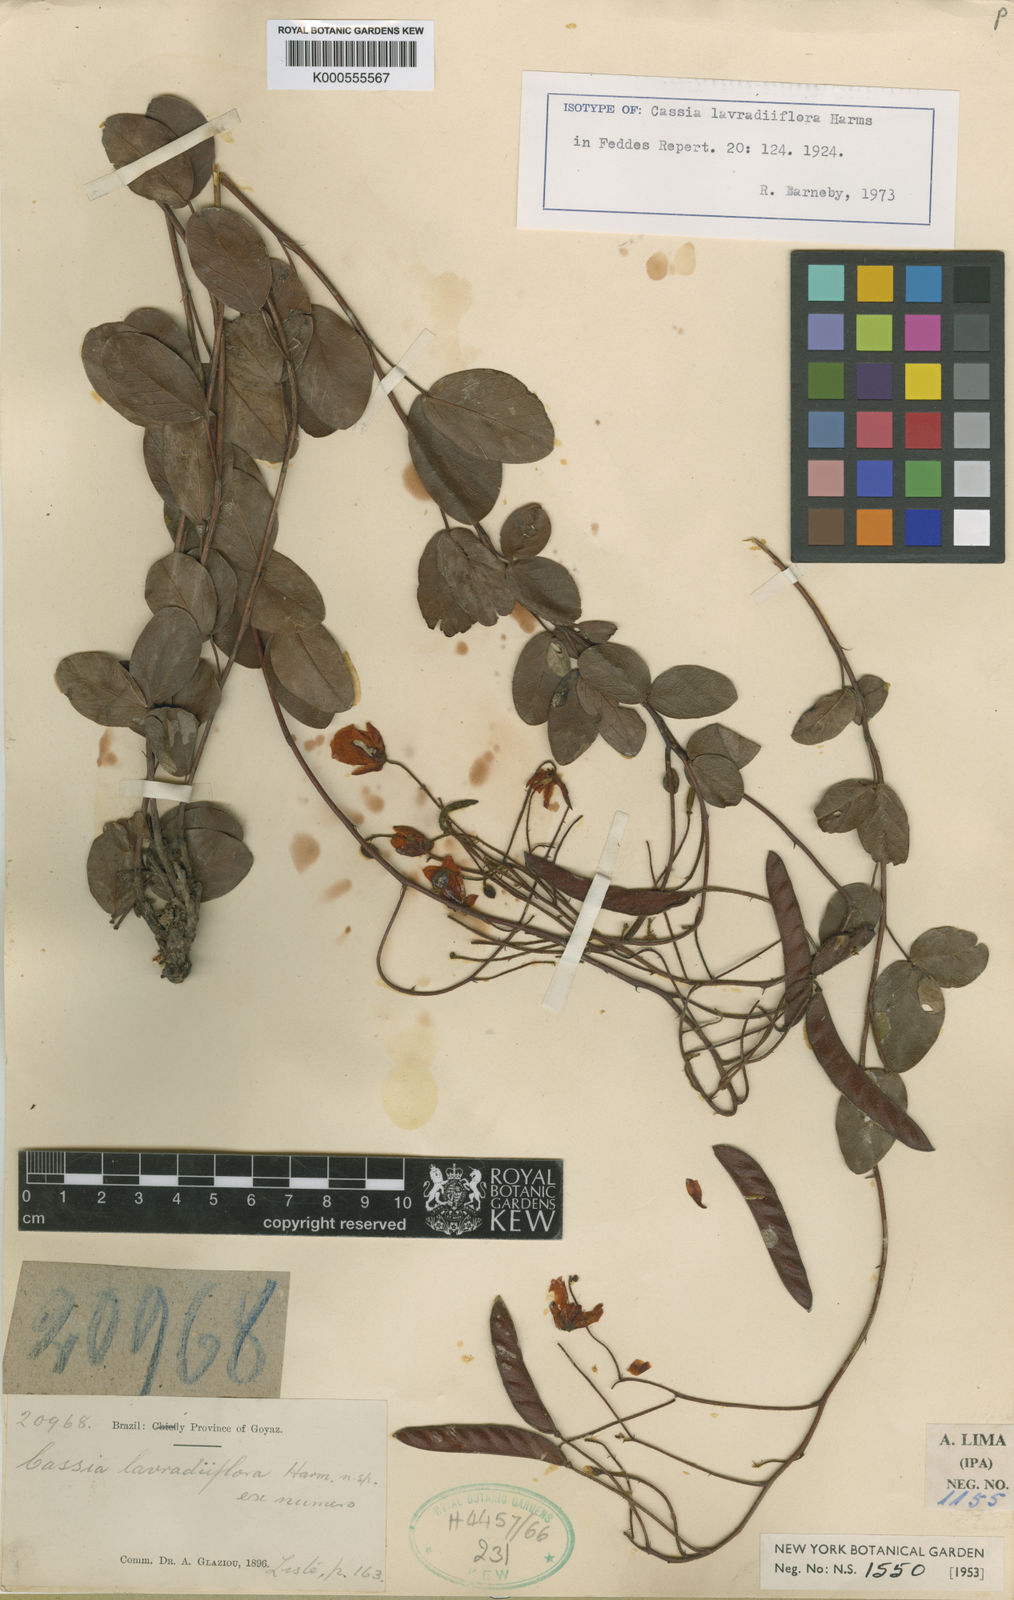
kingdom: Plantae
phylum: Tracheophyta
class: Magnoliopsida
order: Fabales
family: Fabaceae
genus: Chamaecrista
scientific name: Chamaecrista
